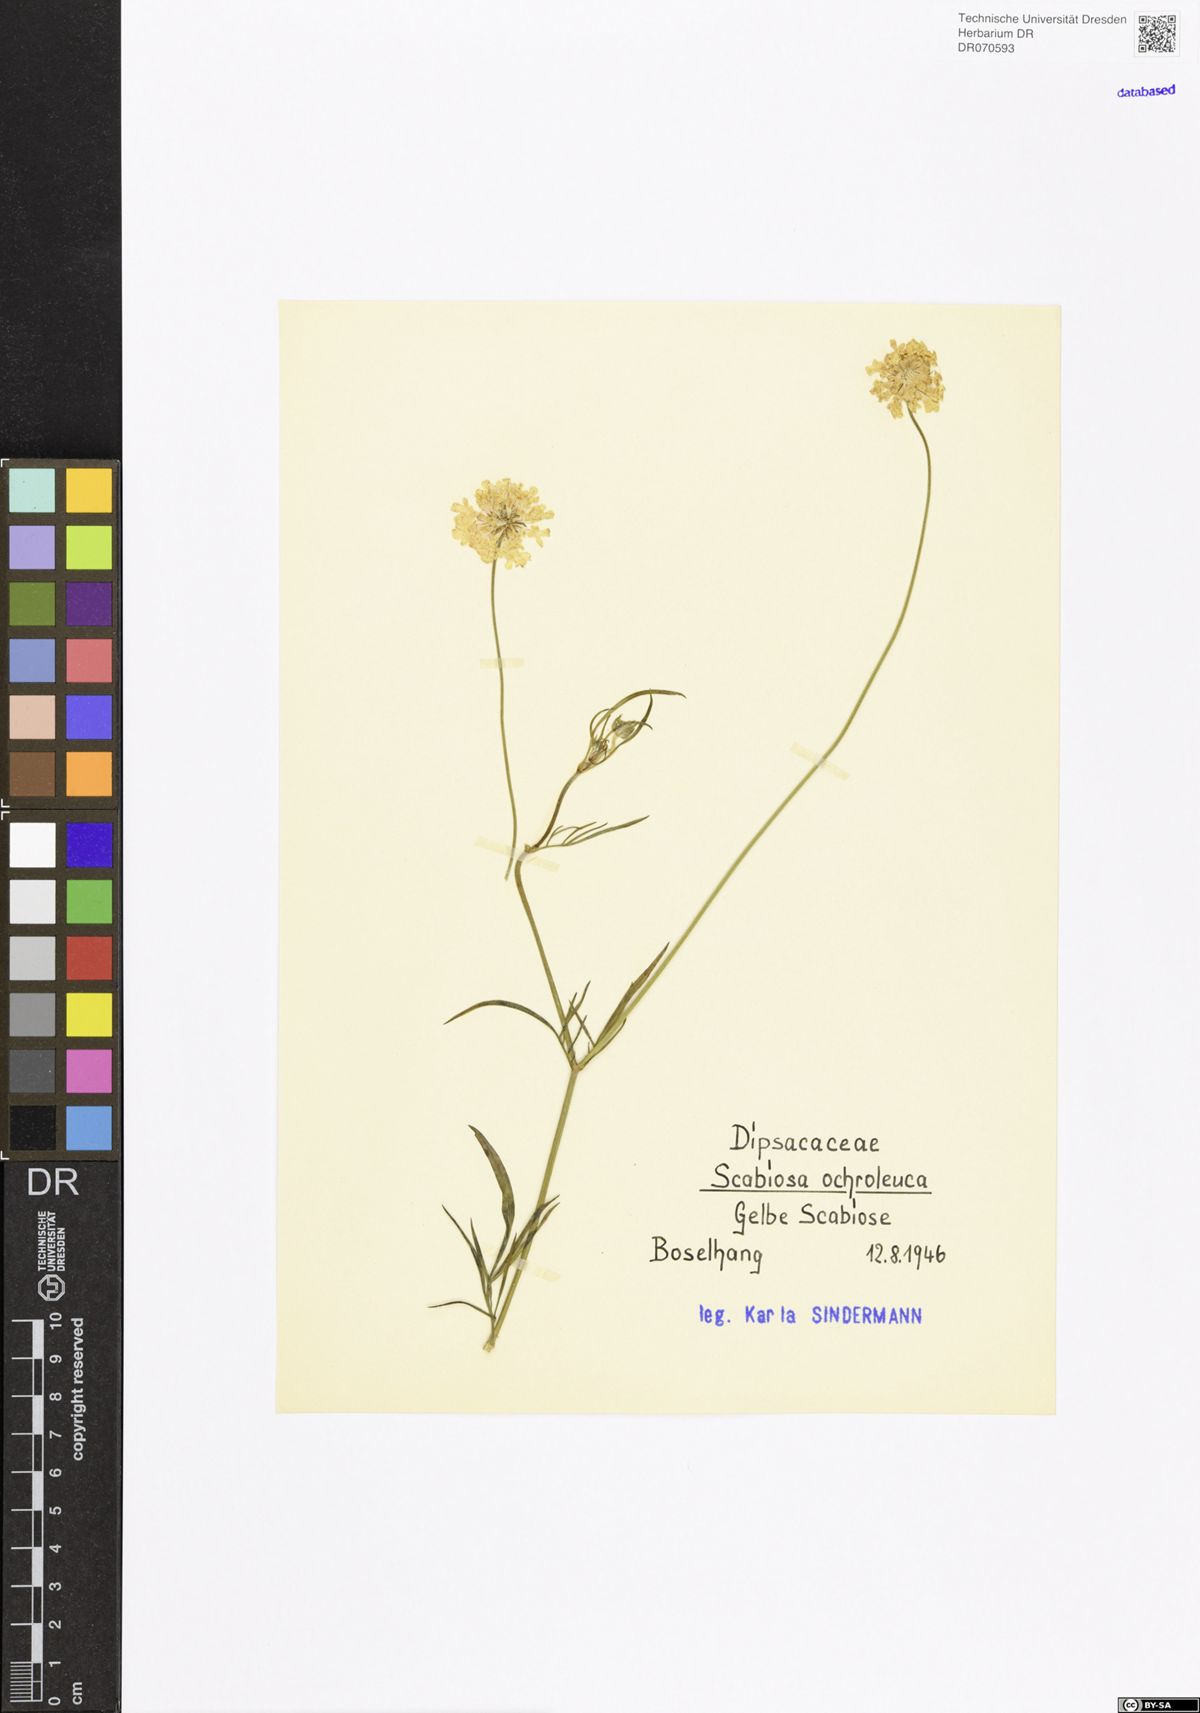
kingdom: Plantae
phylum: Tracheophyta
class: Magnoliopsida
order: Dipsacales
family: Caprifoliaceae
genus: Scabiosa
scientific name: Scabiosa ochroleuca
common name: Cream pincushions
